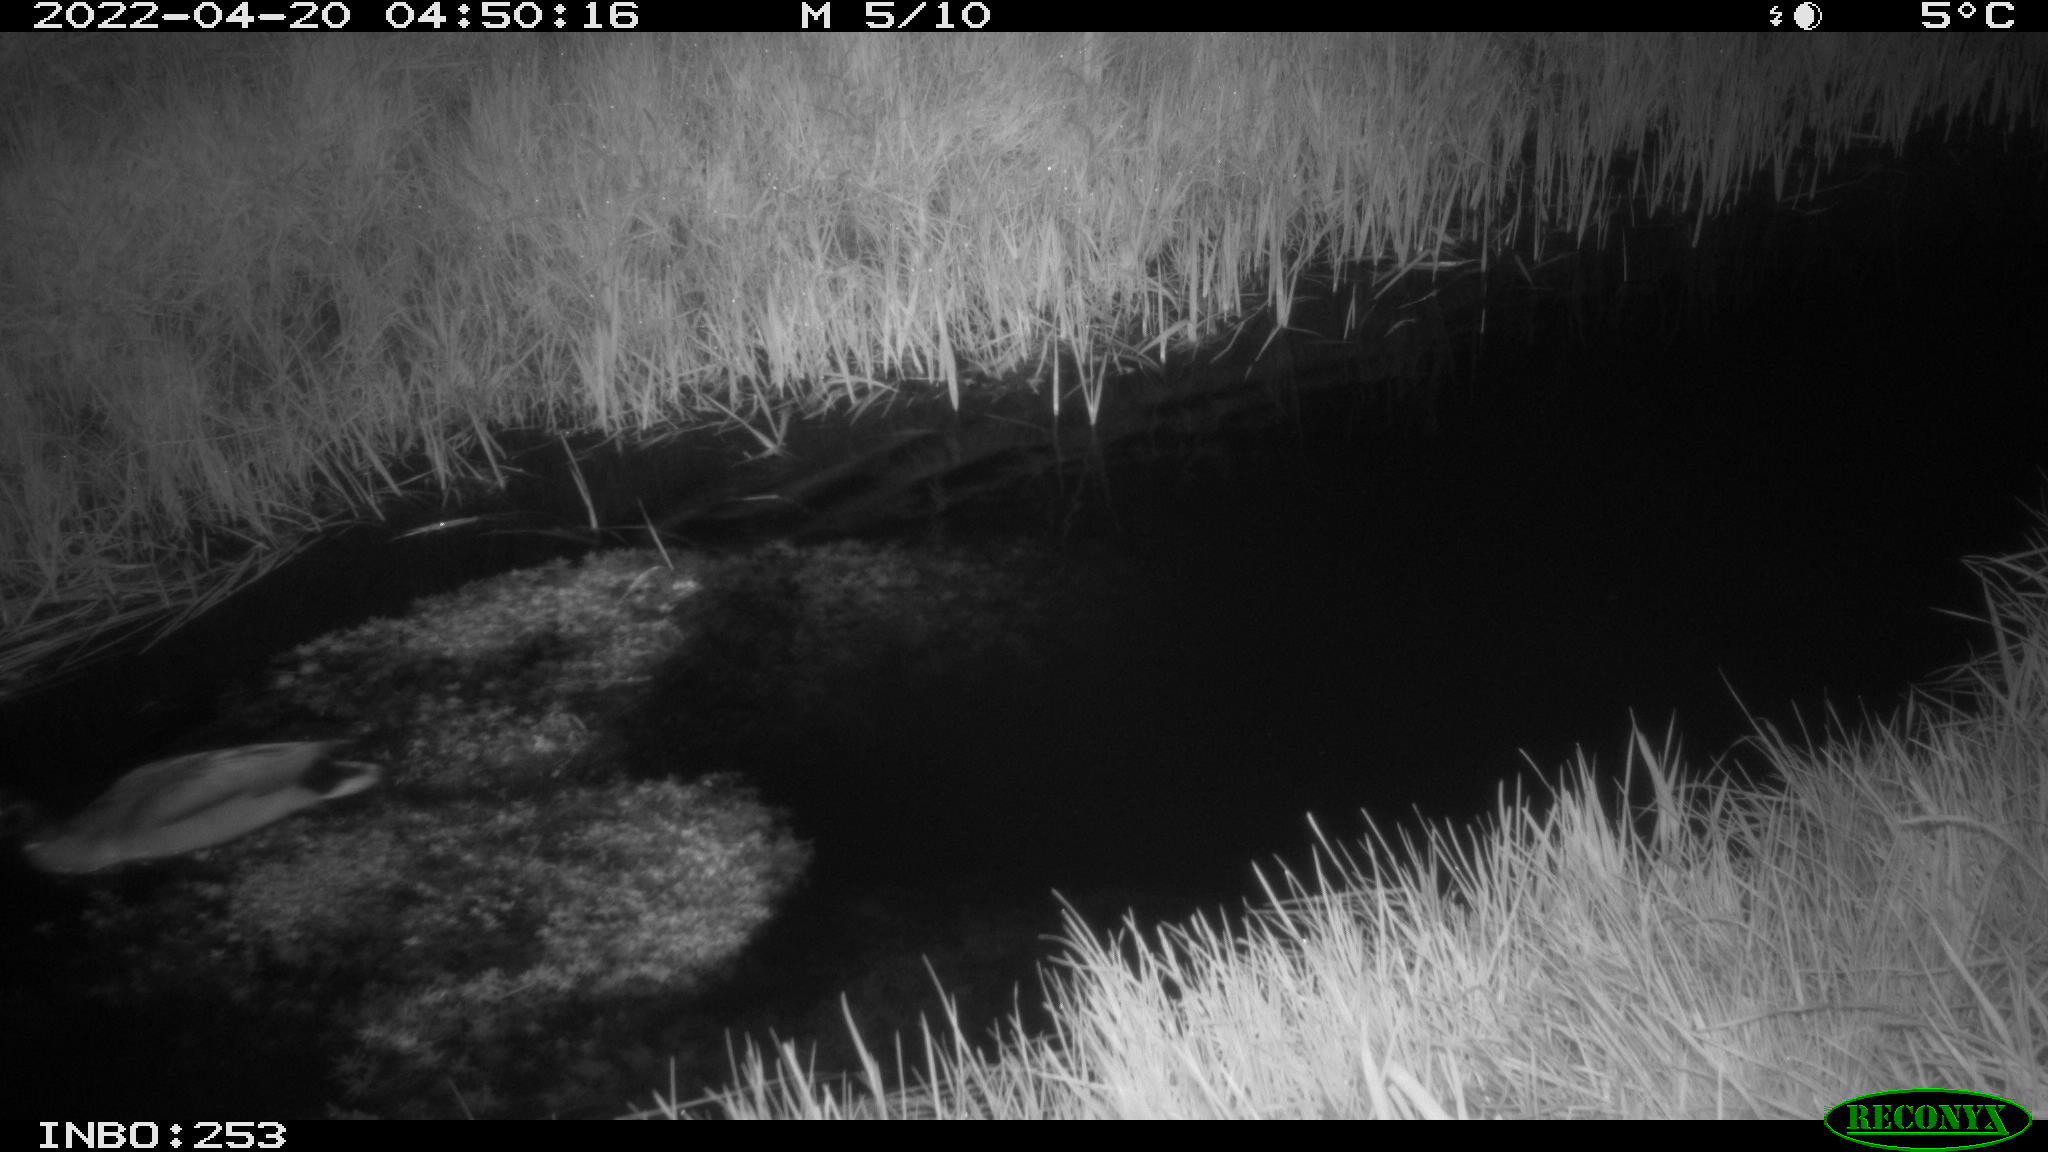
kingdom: Animalia
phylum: Chordata
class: Aves
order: Anseriformes
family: Anatidae
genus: Anas
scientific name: Anas platyrhynchos
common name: Mallard
